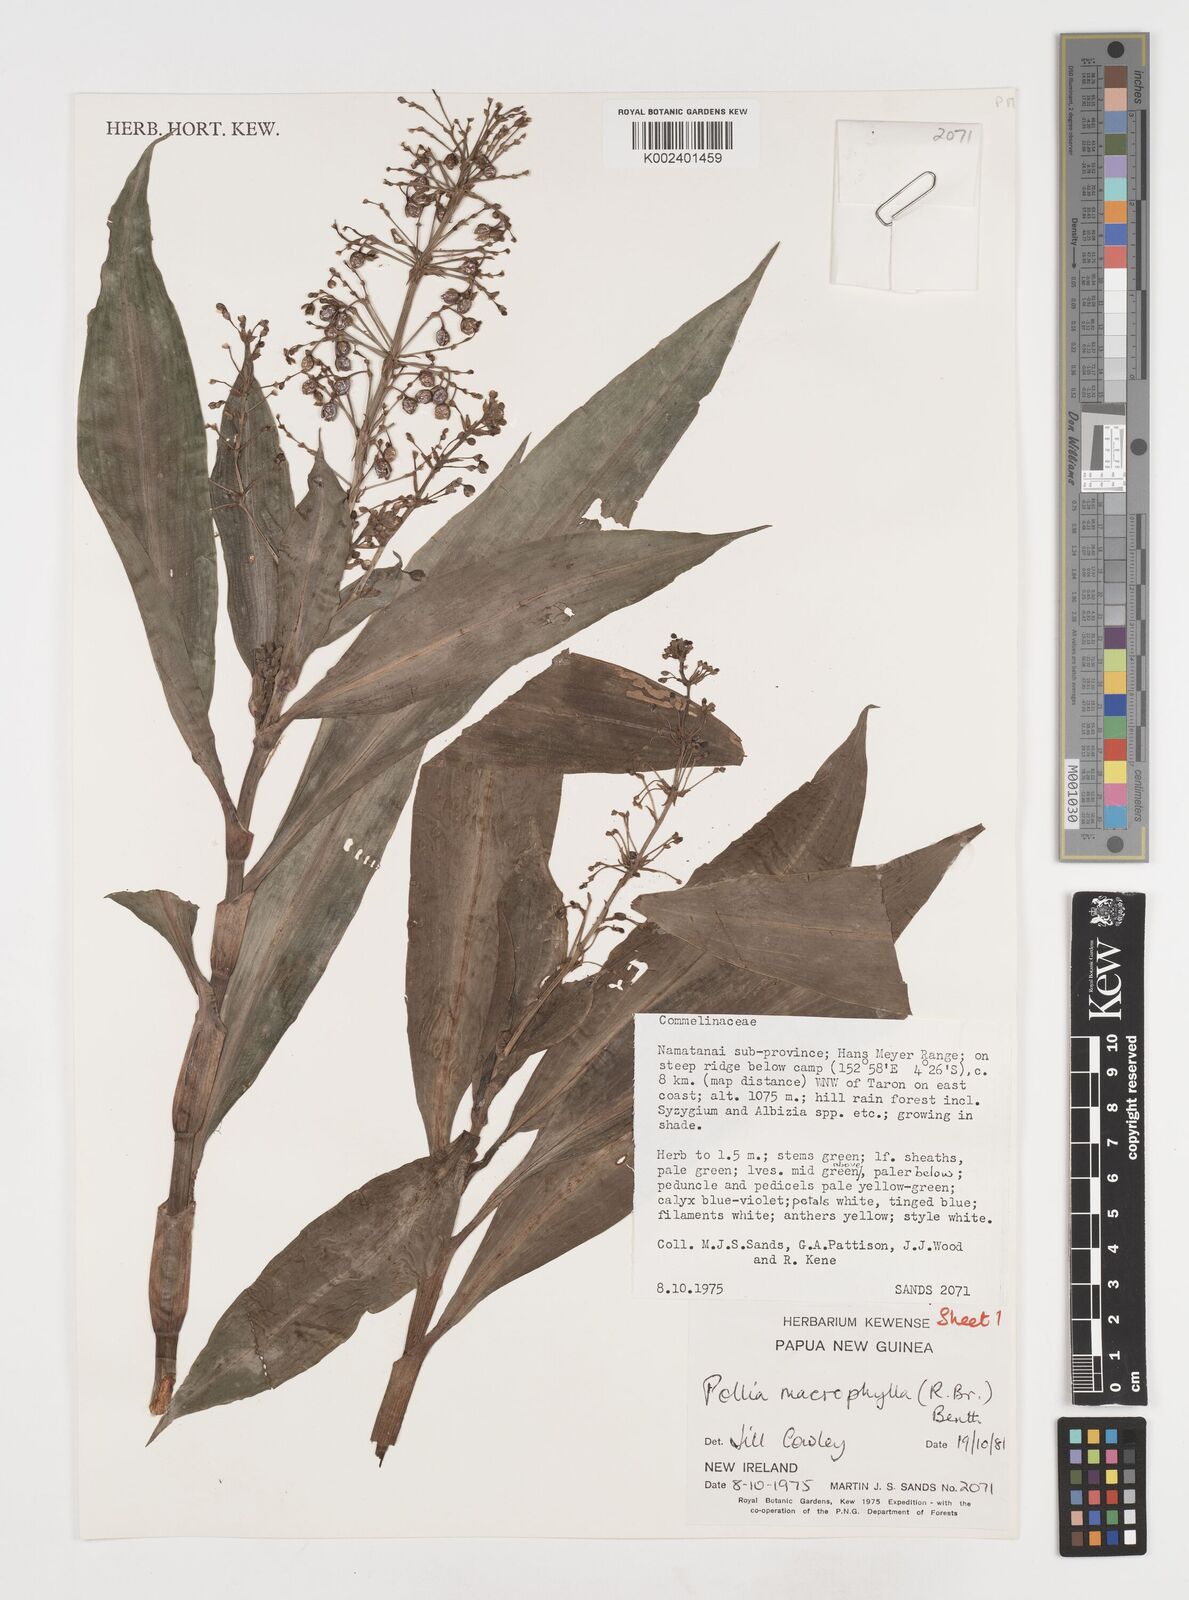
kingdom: Plantae
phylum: Tracheophyta
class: Liliopsida
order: Commelinales
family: Commelinaceae
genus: Pollia
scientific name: Pollia macrophylla
